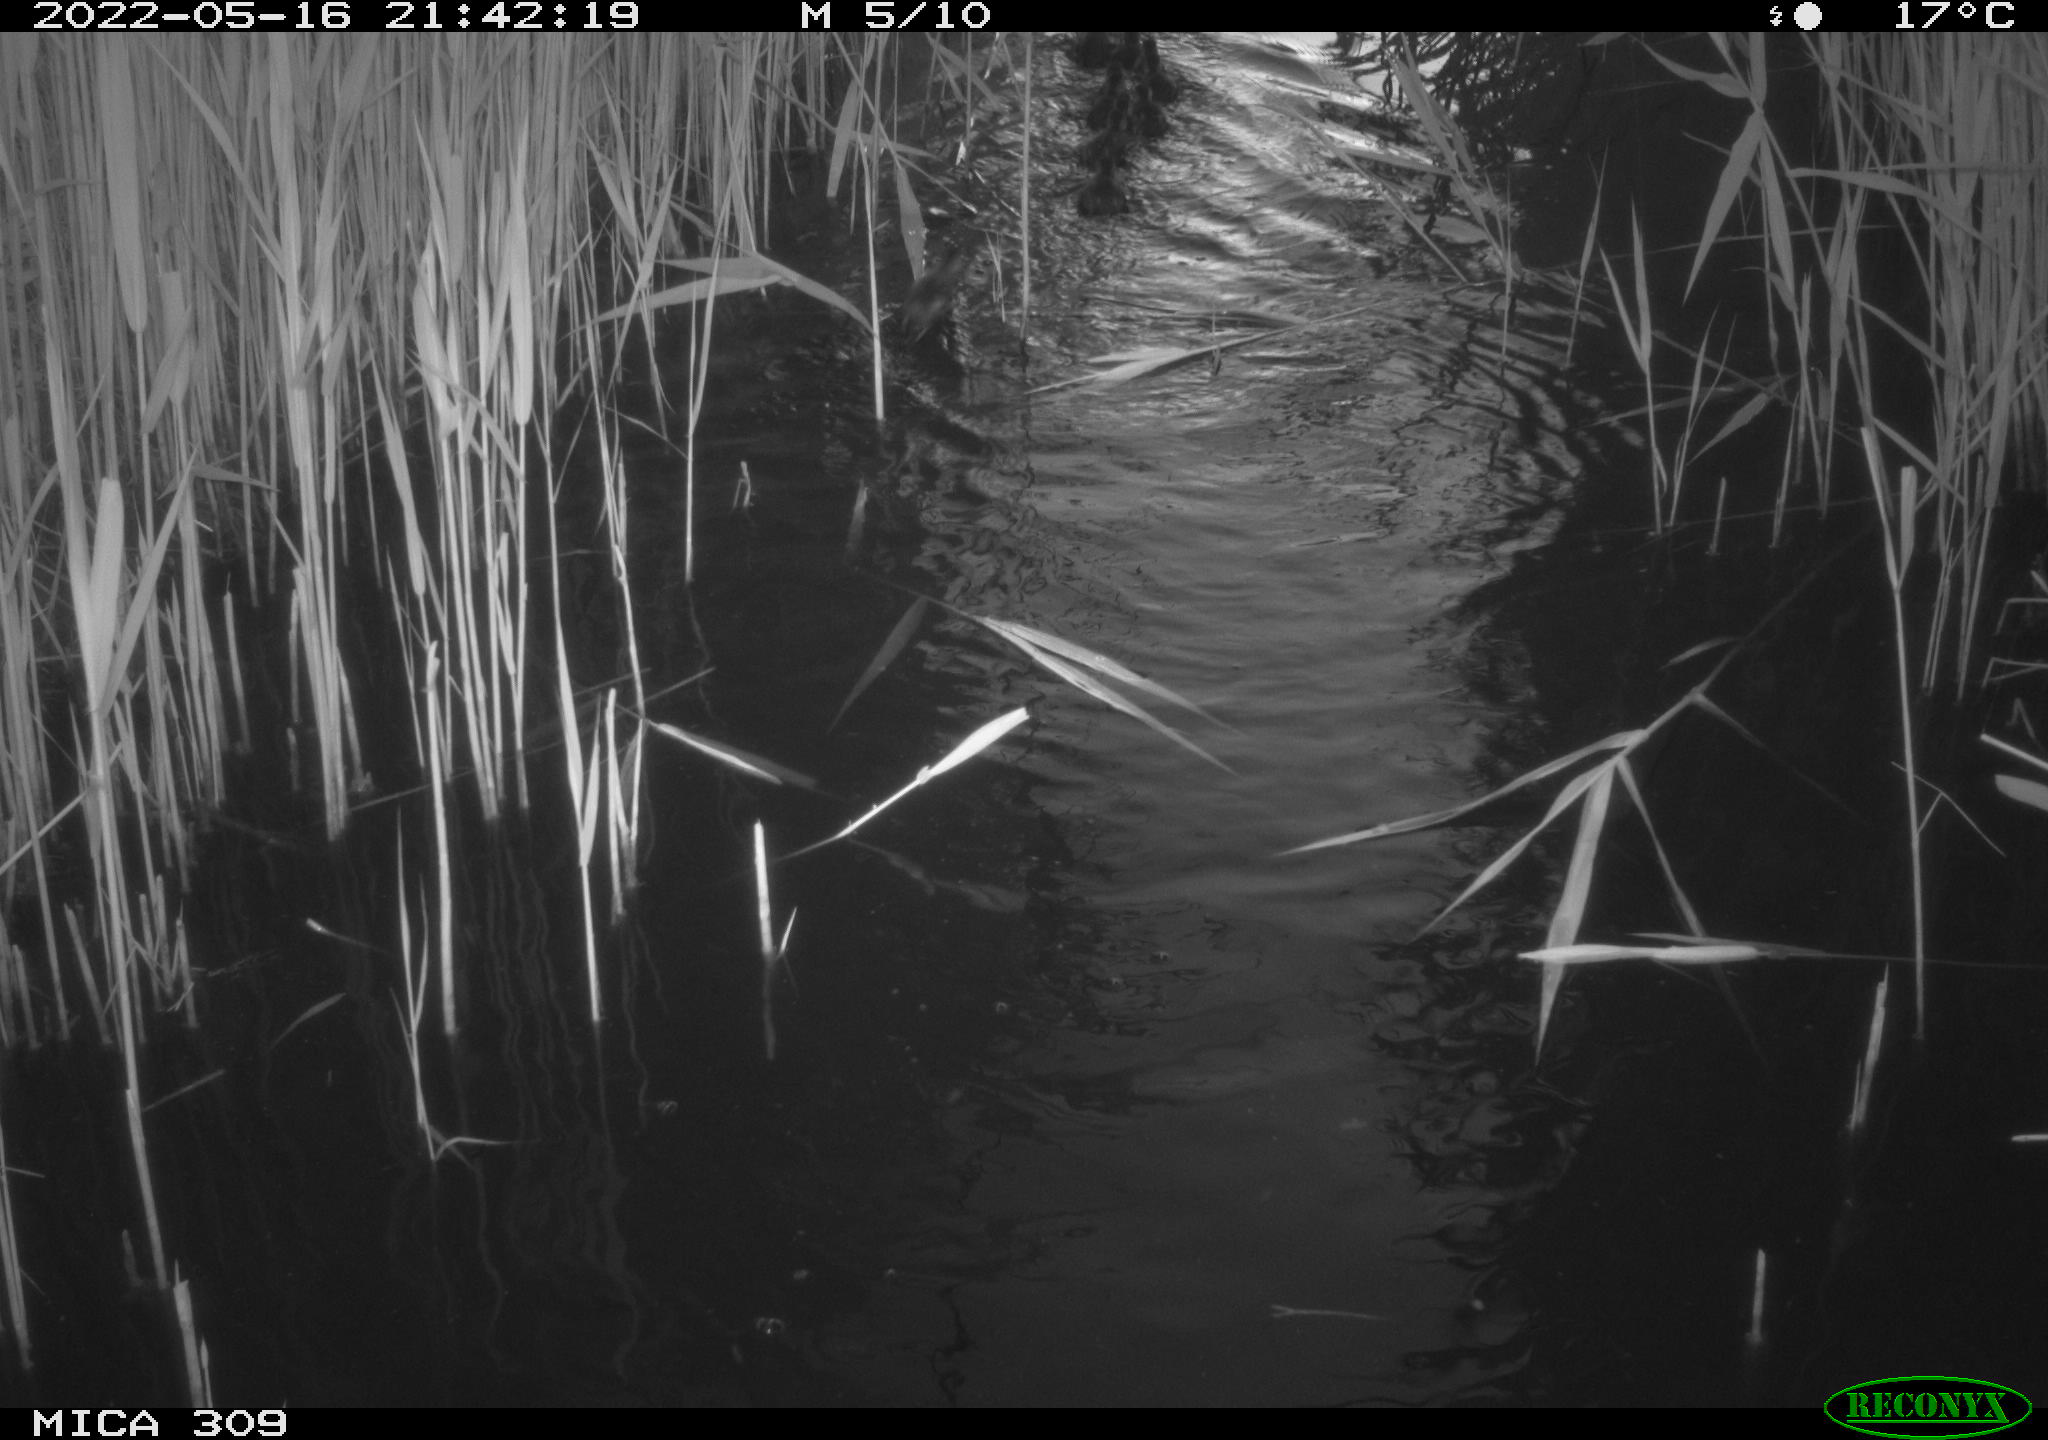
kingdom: Animalia
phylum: Chordata
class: Aves
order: Anseriformes
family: Anatidae
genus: Anas
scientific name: Anas platyrhynchos
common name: Mallard
